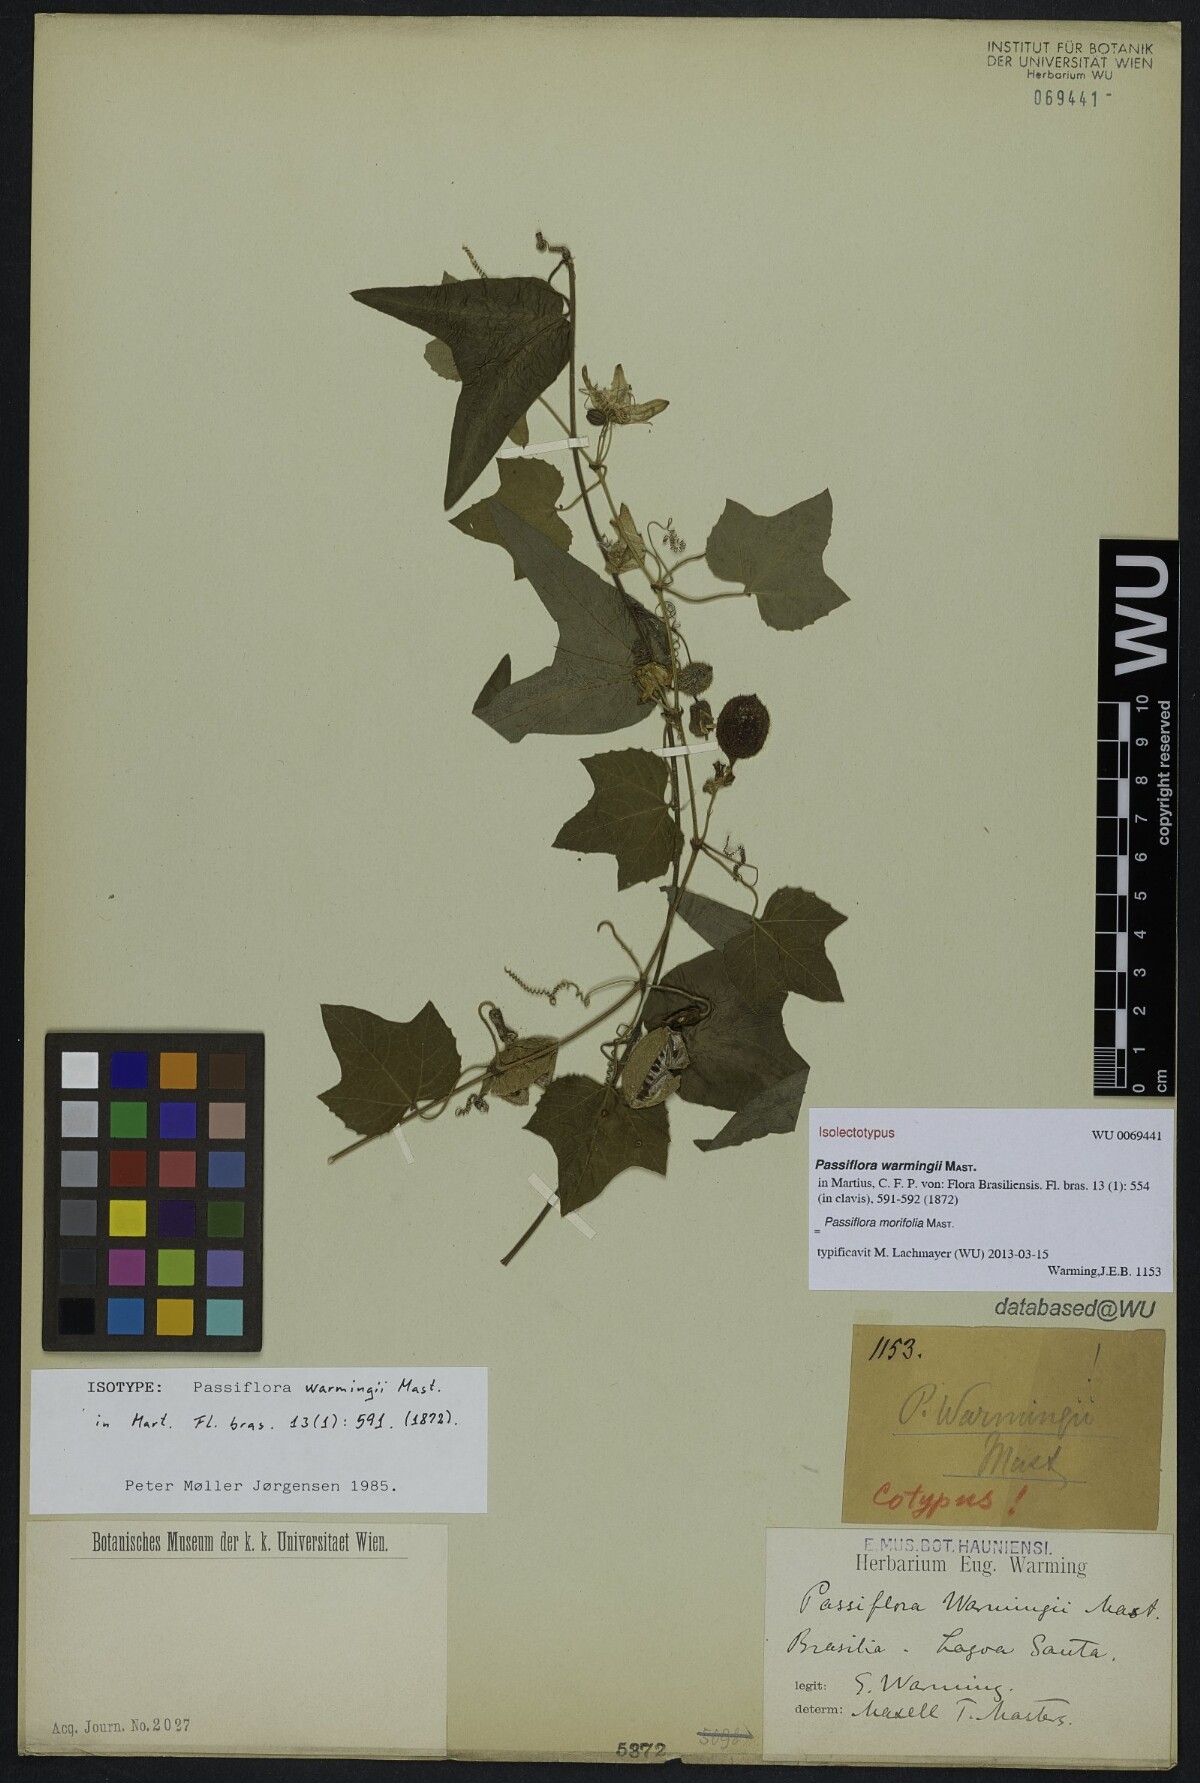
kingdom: Plantae
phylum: Tracheophyta
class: Magnoliopsida
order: Malpighiales
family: Passifloraceae
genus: Passiflora
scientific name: Passiflora morifolia
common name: Woodland passionflower
